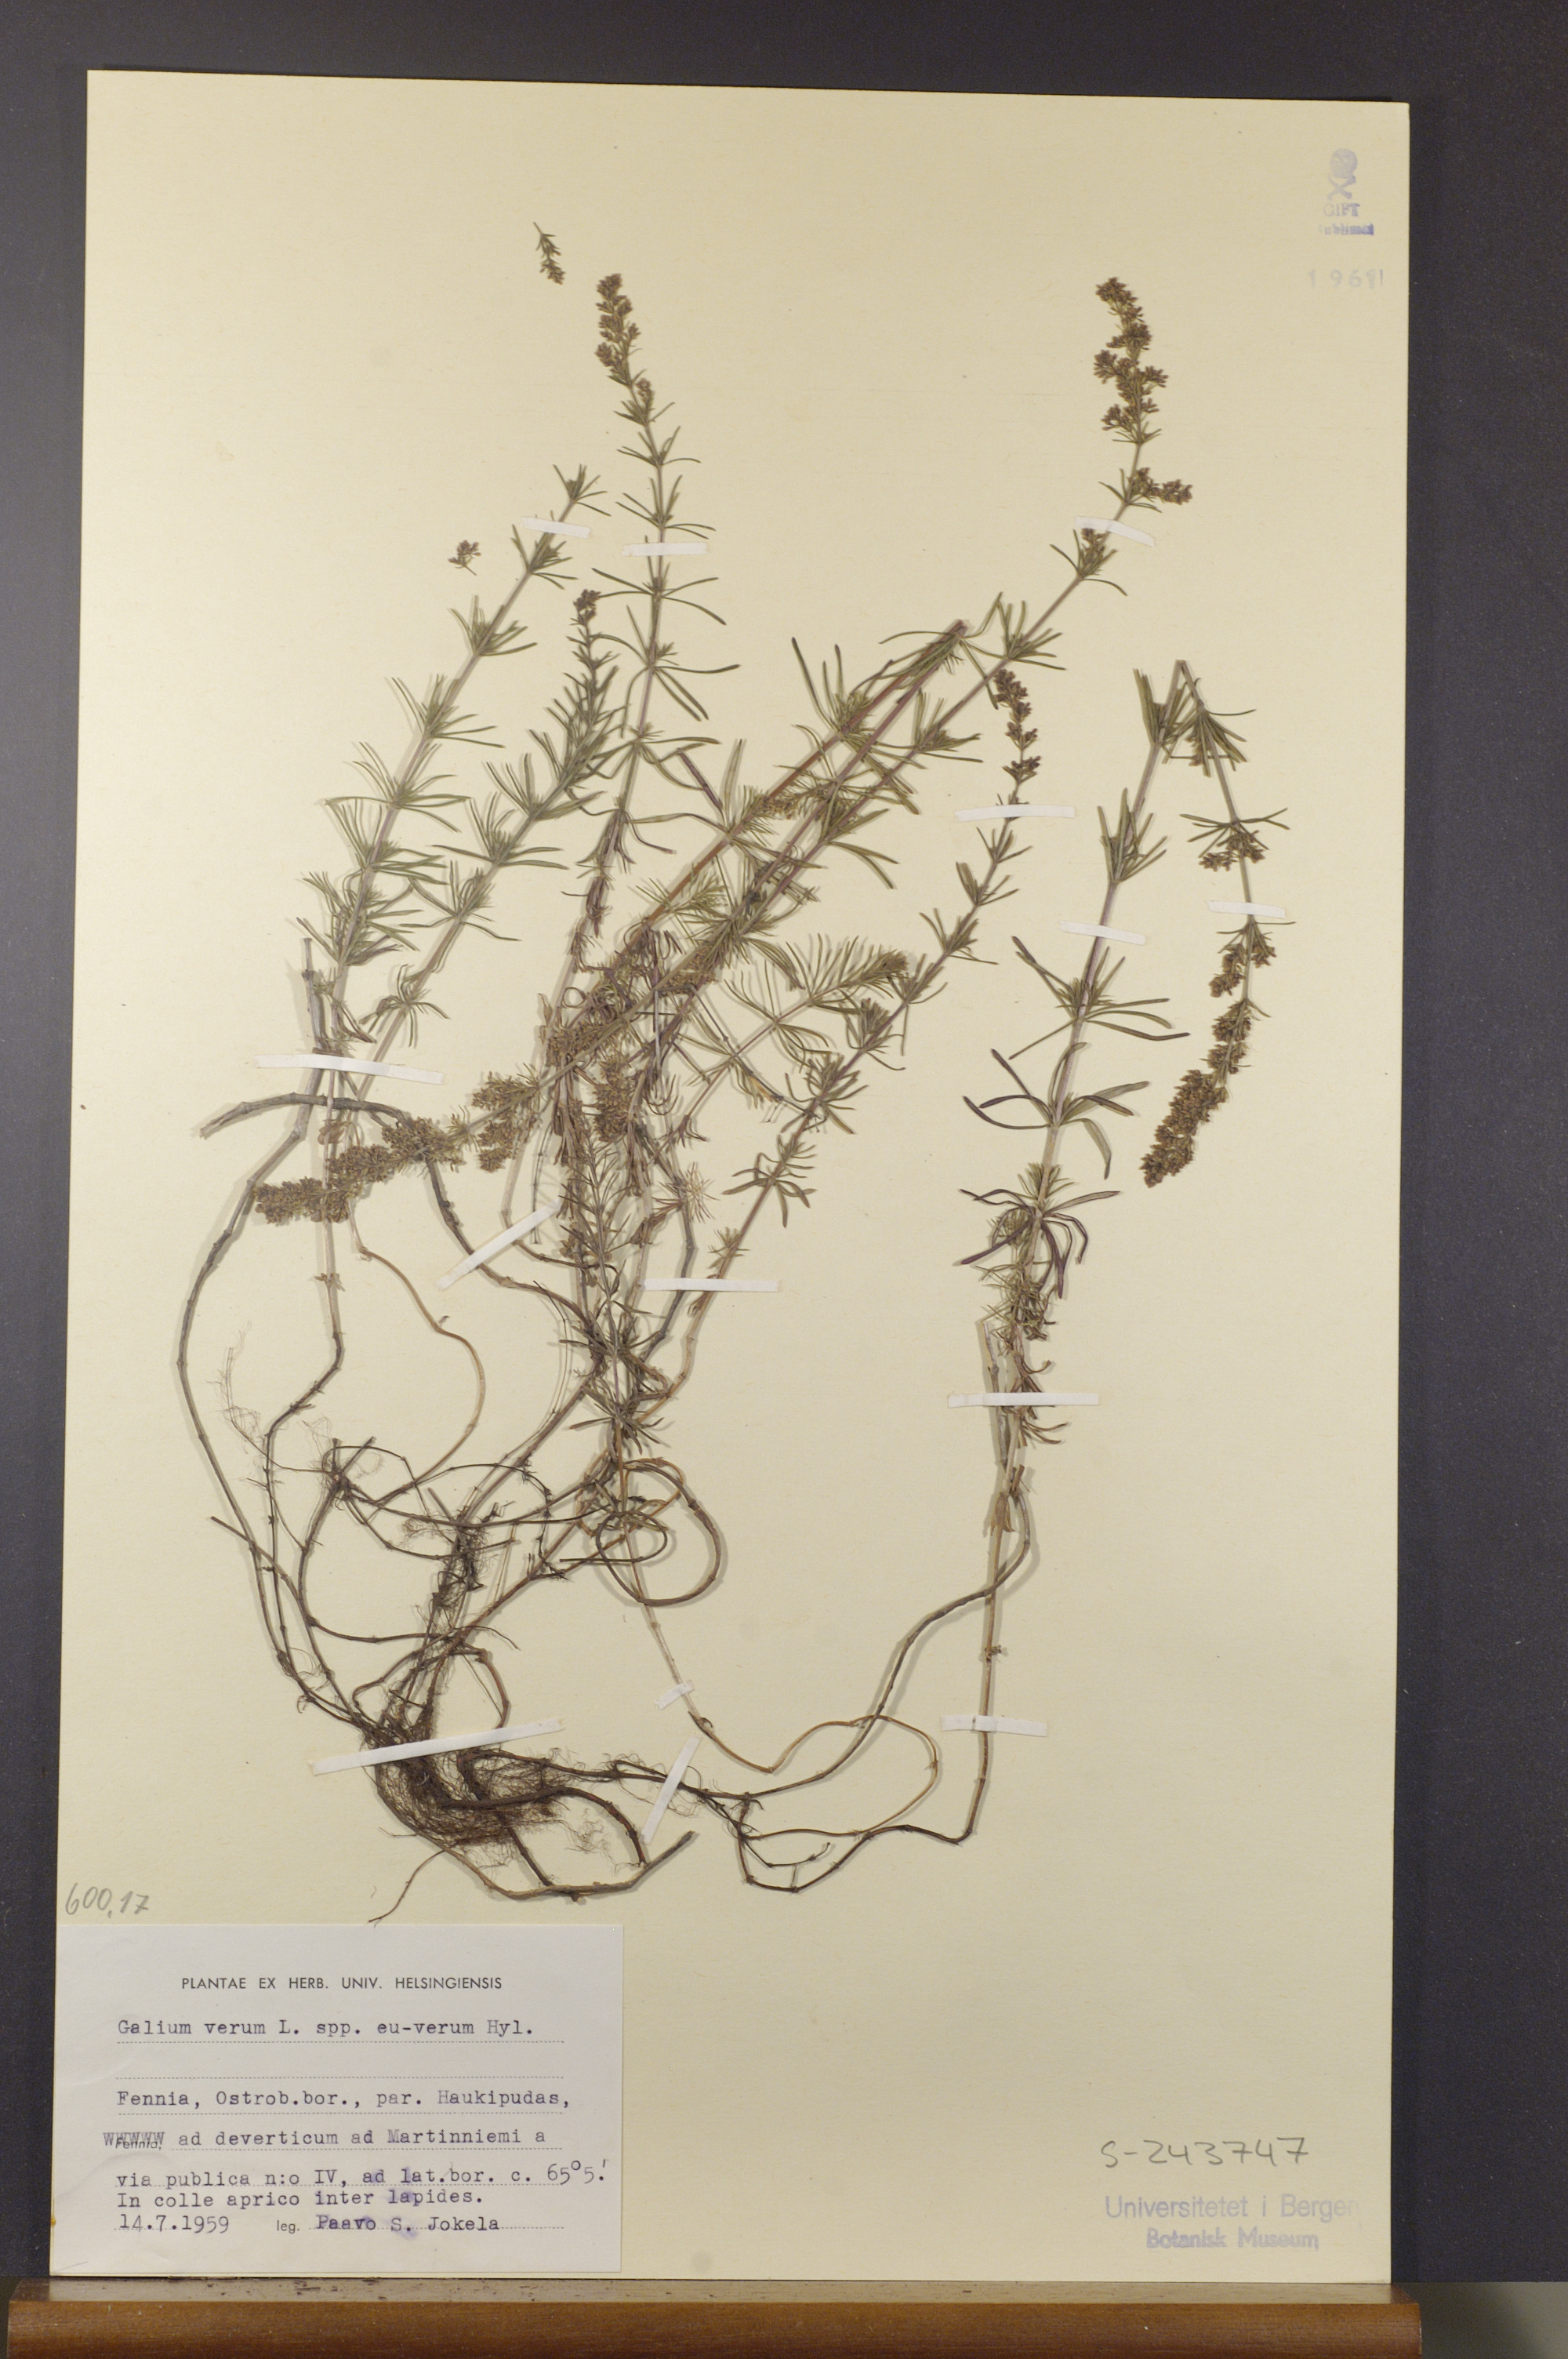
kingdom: Plantae
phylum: Tracheophyta
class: Magnoliopsida
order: Gentianales
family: Rubiaceae
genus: Galium
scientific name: Galium verum
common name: Lady's bedstraw
